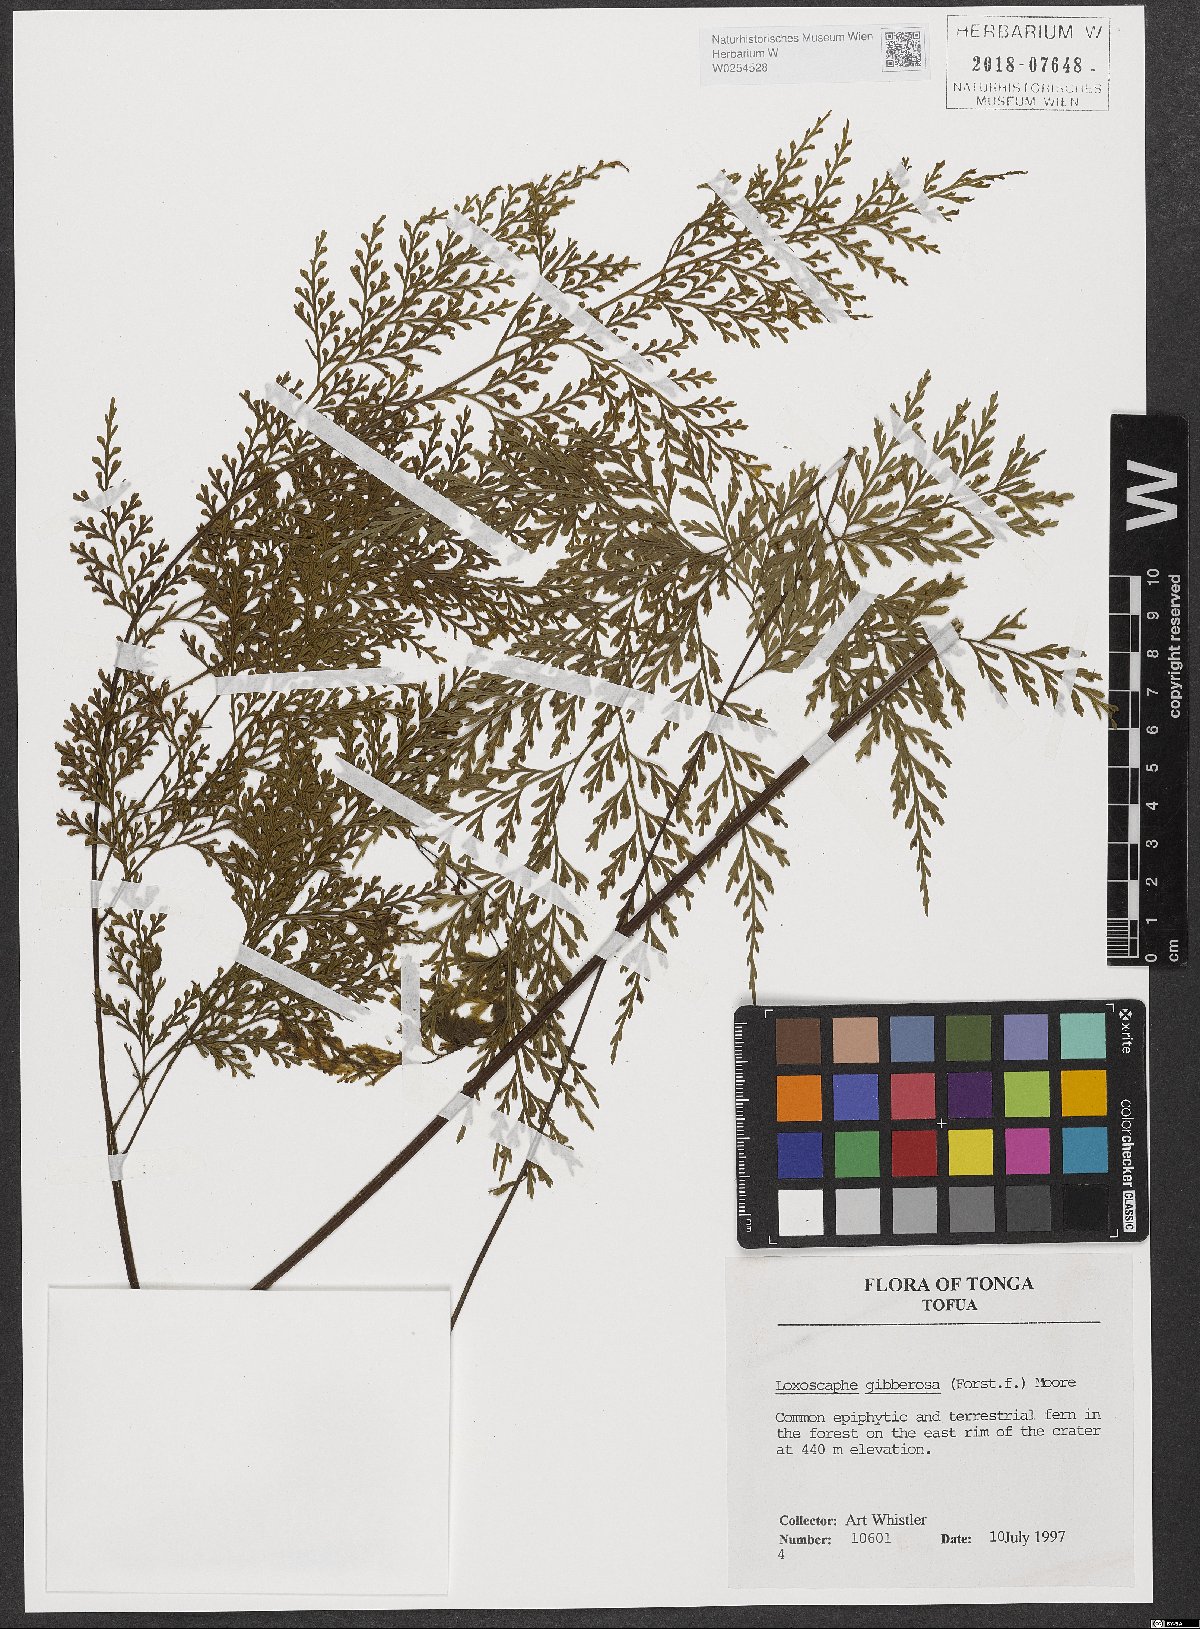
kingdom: Plantae
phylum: Tracheophyta
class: Polypodiopsida
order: Polypodiales
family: Aspleniaceae
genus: Asplenium
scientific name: Asplenium gibberosum
